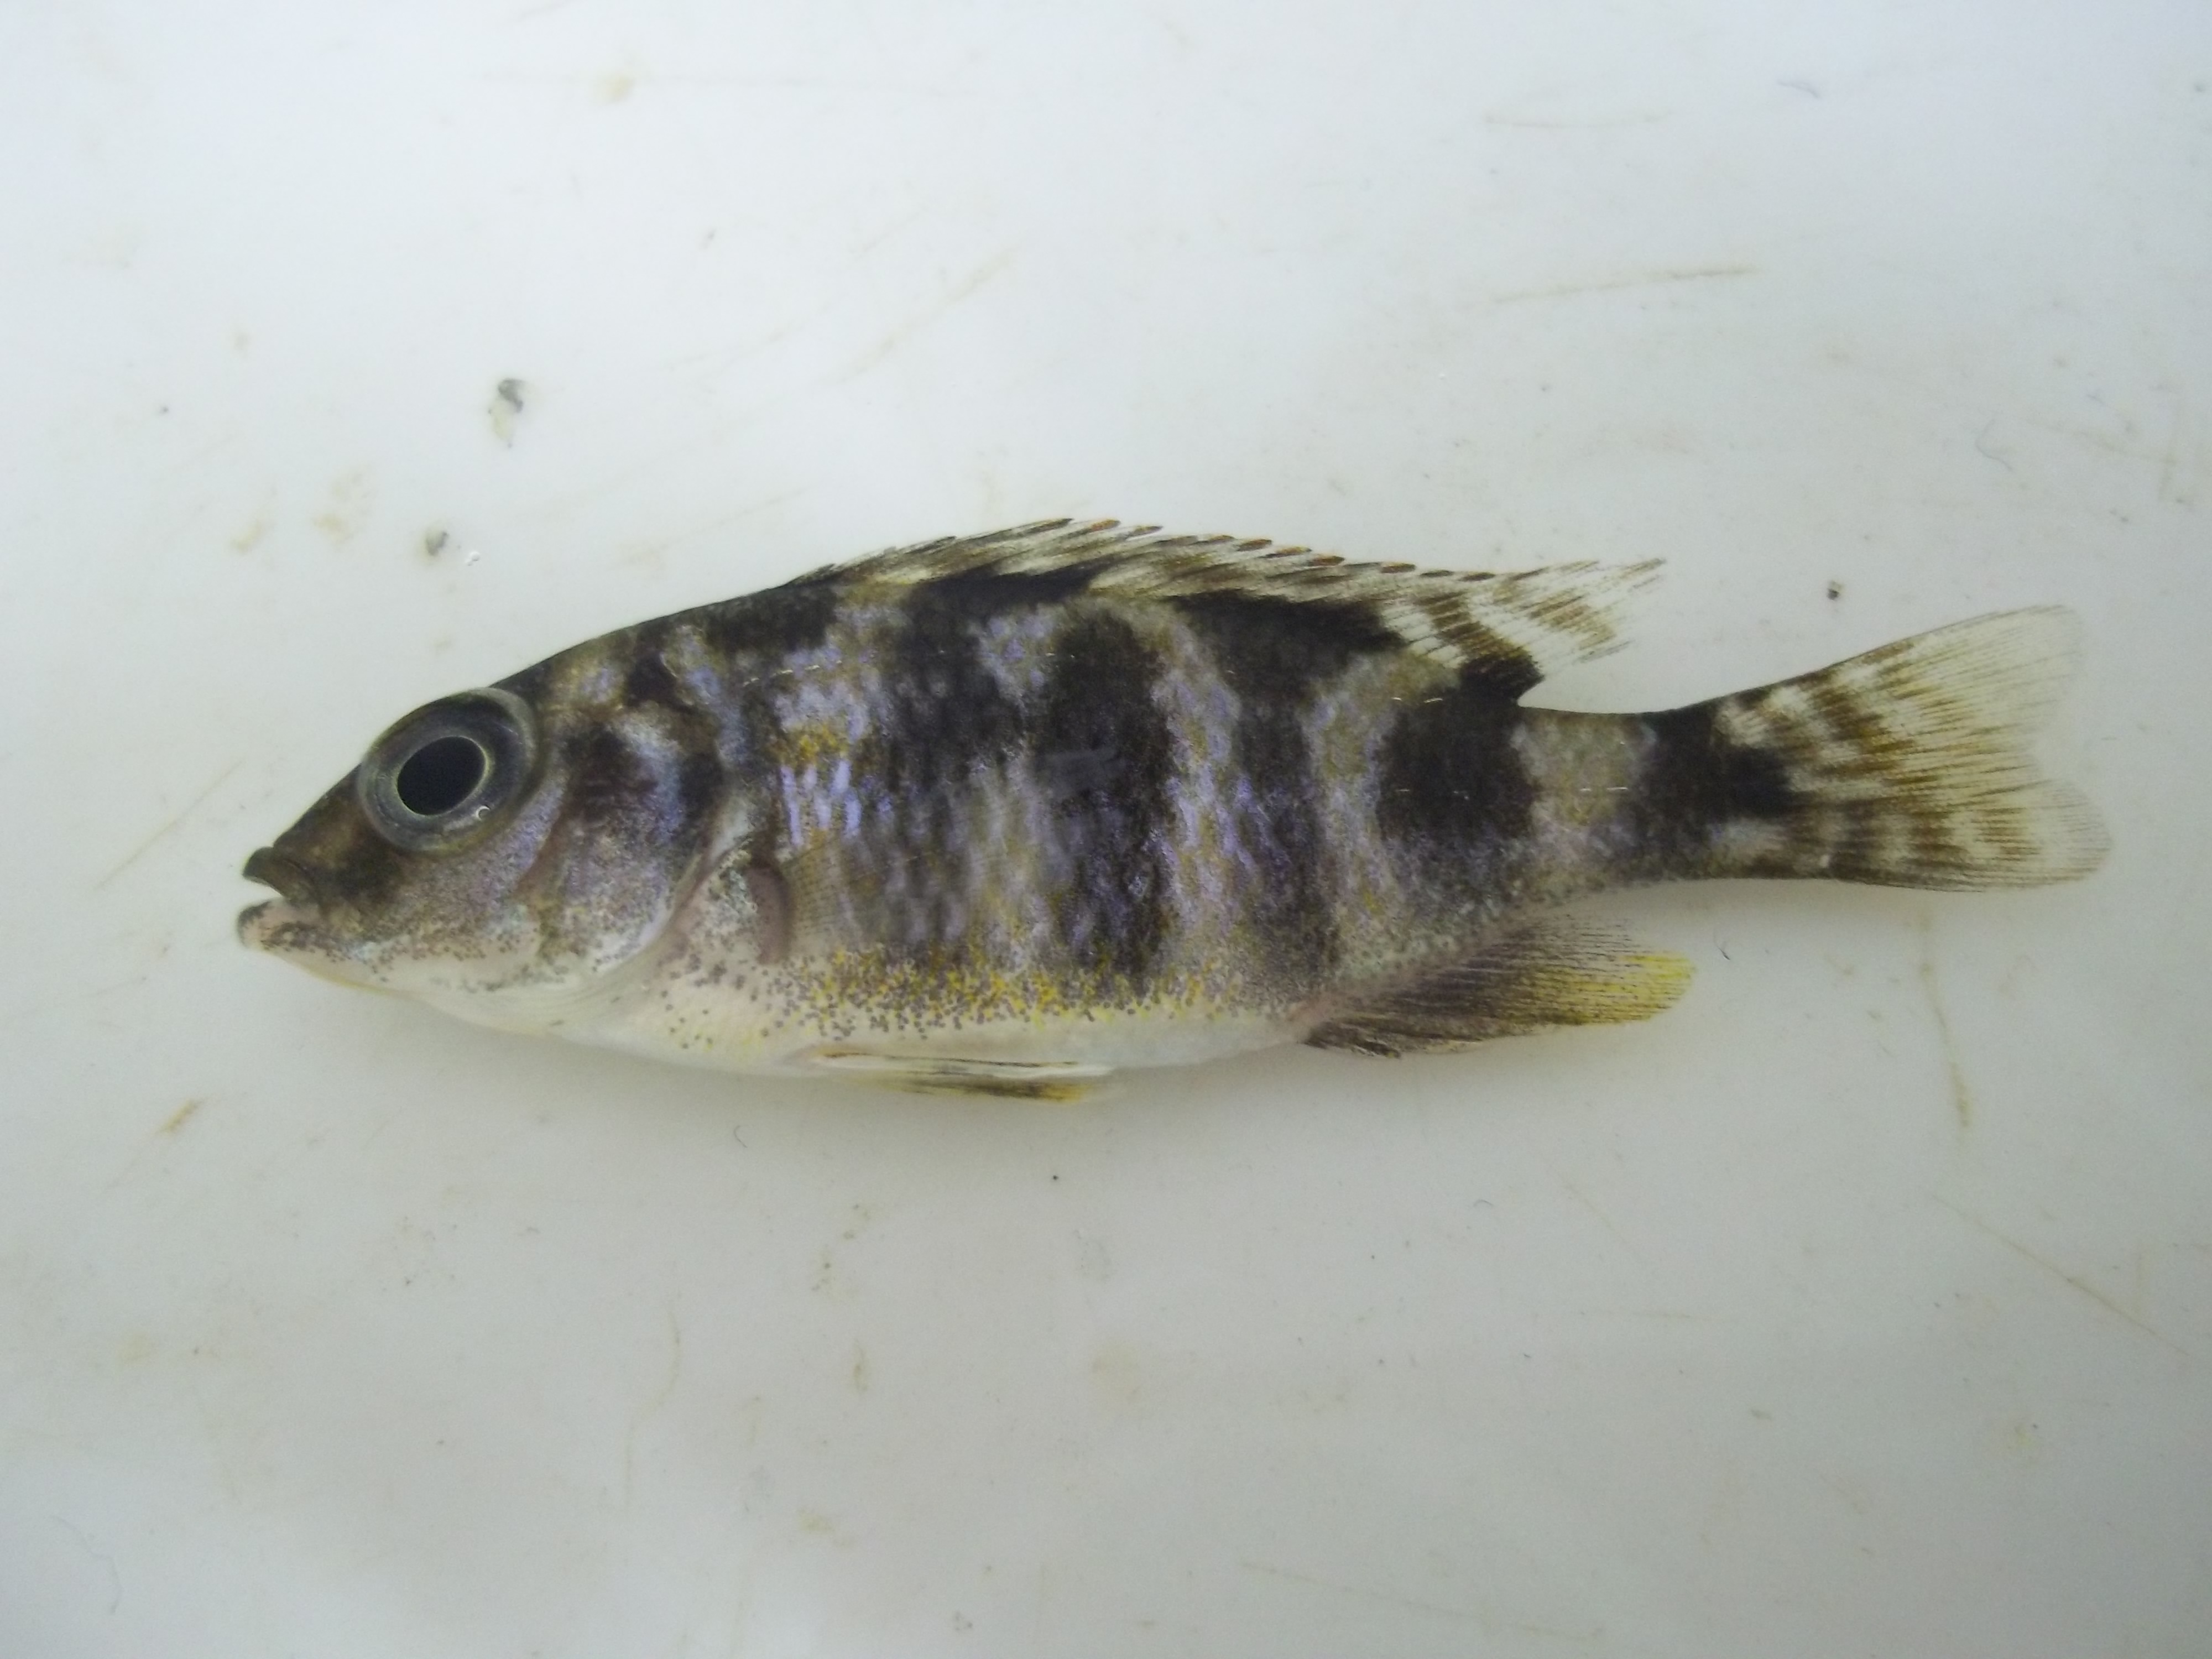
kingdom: Animalia
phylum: Chordata
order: Perciformes
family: Cichlidae
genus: Maylandia
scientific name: Maylandia lombardoi
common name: Kenyi cichlid
